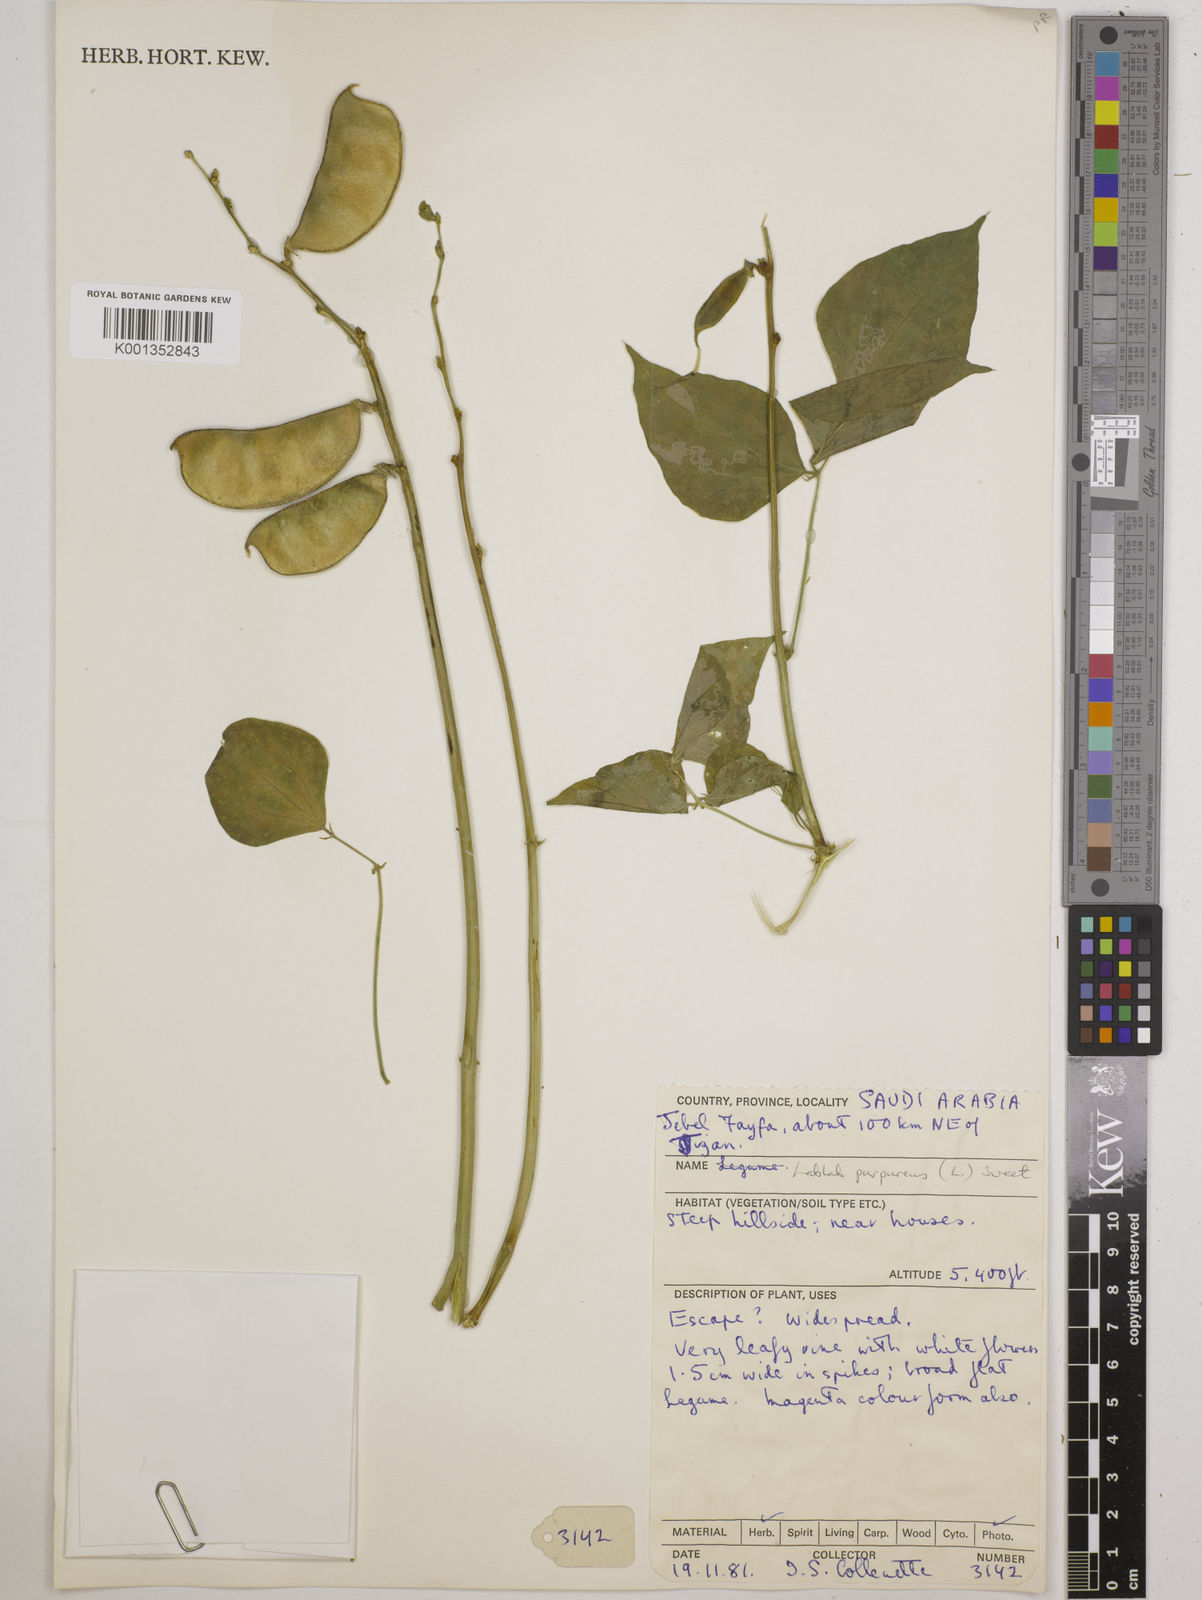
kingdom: Plantae
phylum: Tracheophyta
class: Magnoliopsida
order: Fabales
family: Fabaceae
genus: Lablab
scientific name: Lablab purpureus
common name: Lablab-bean
